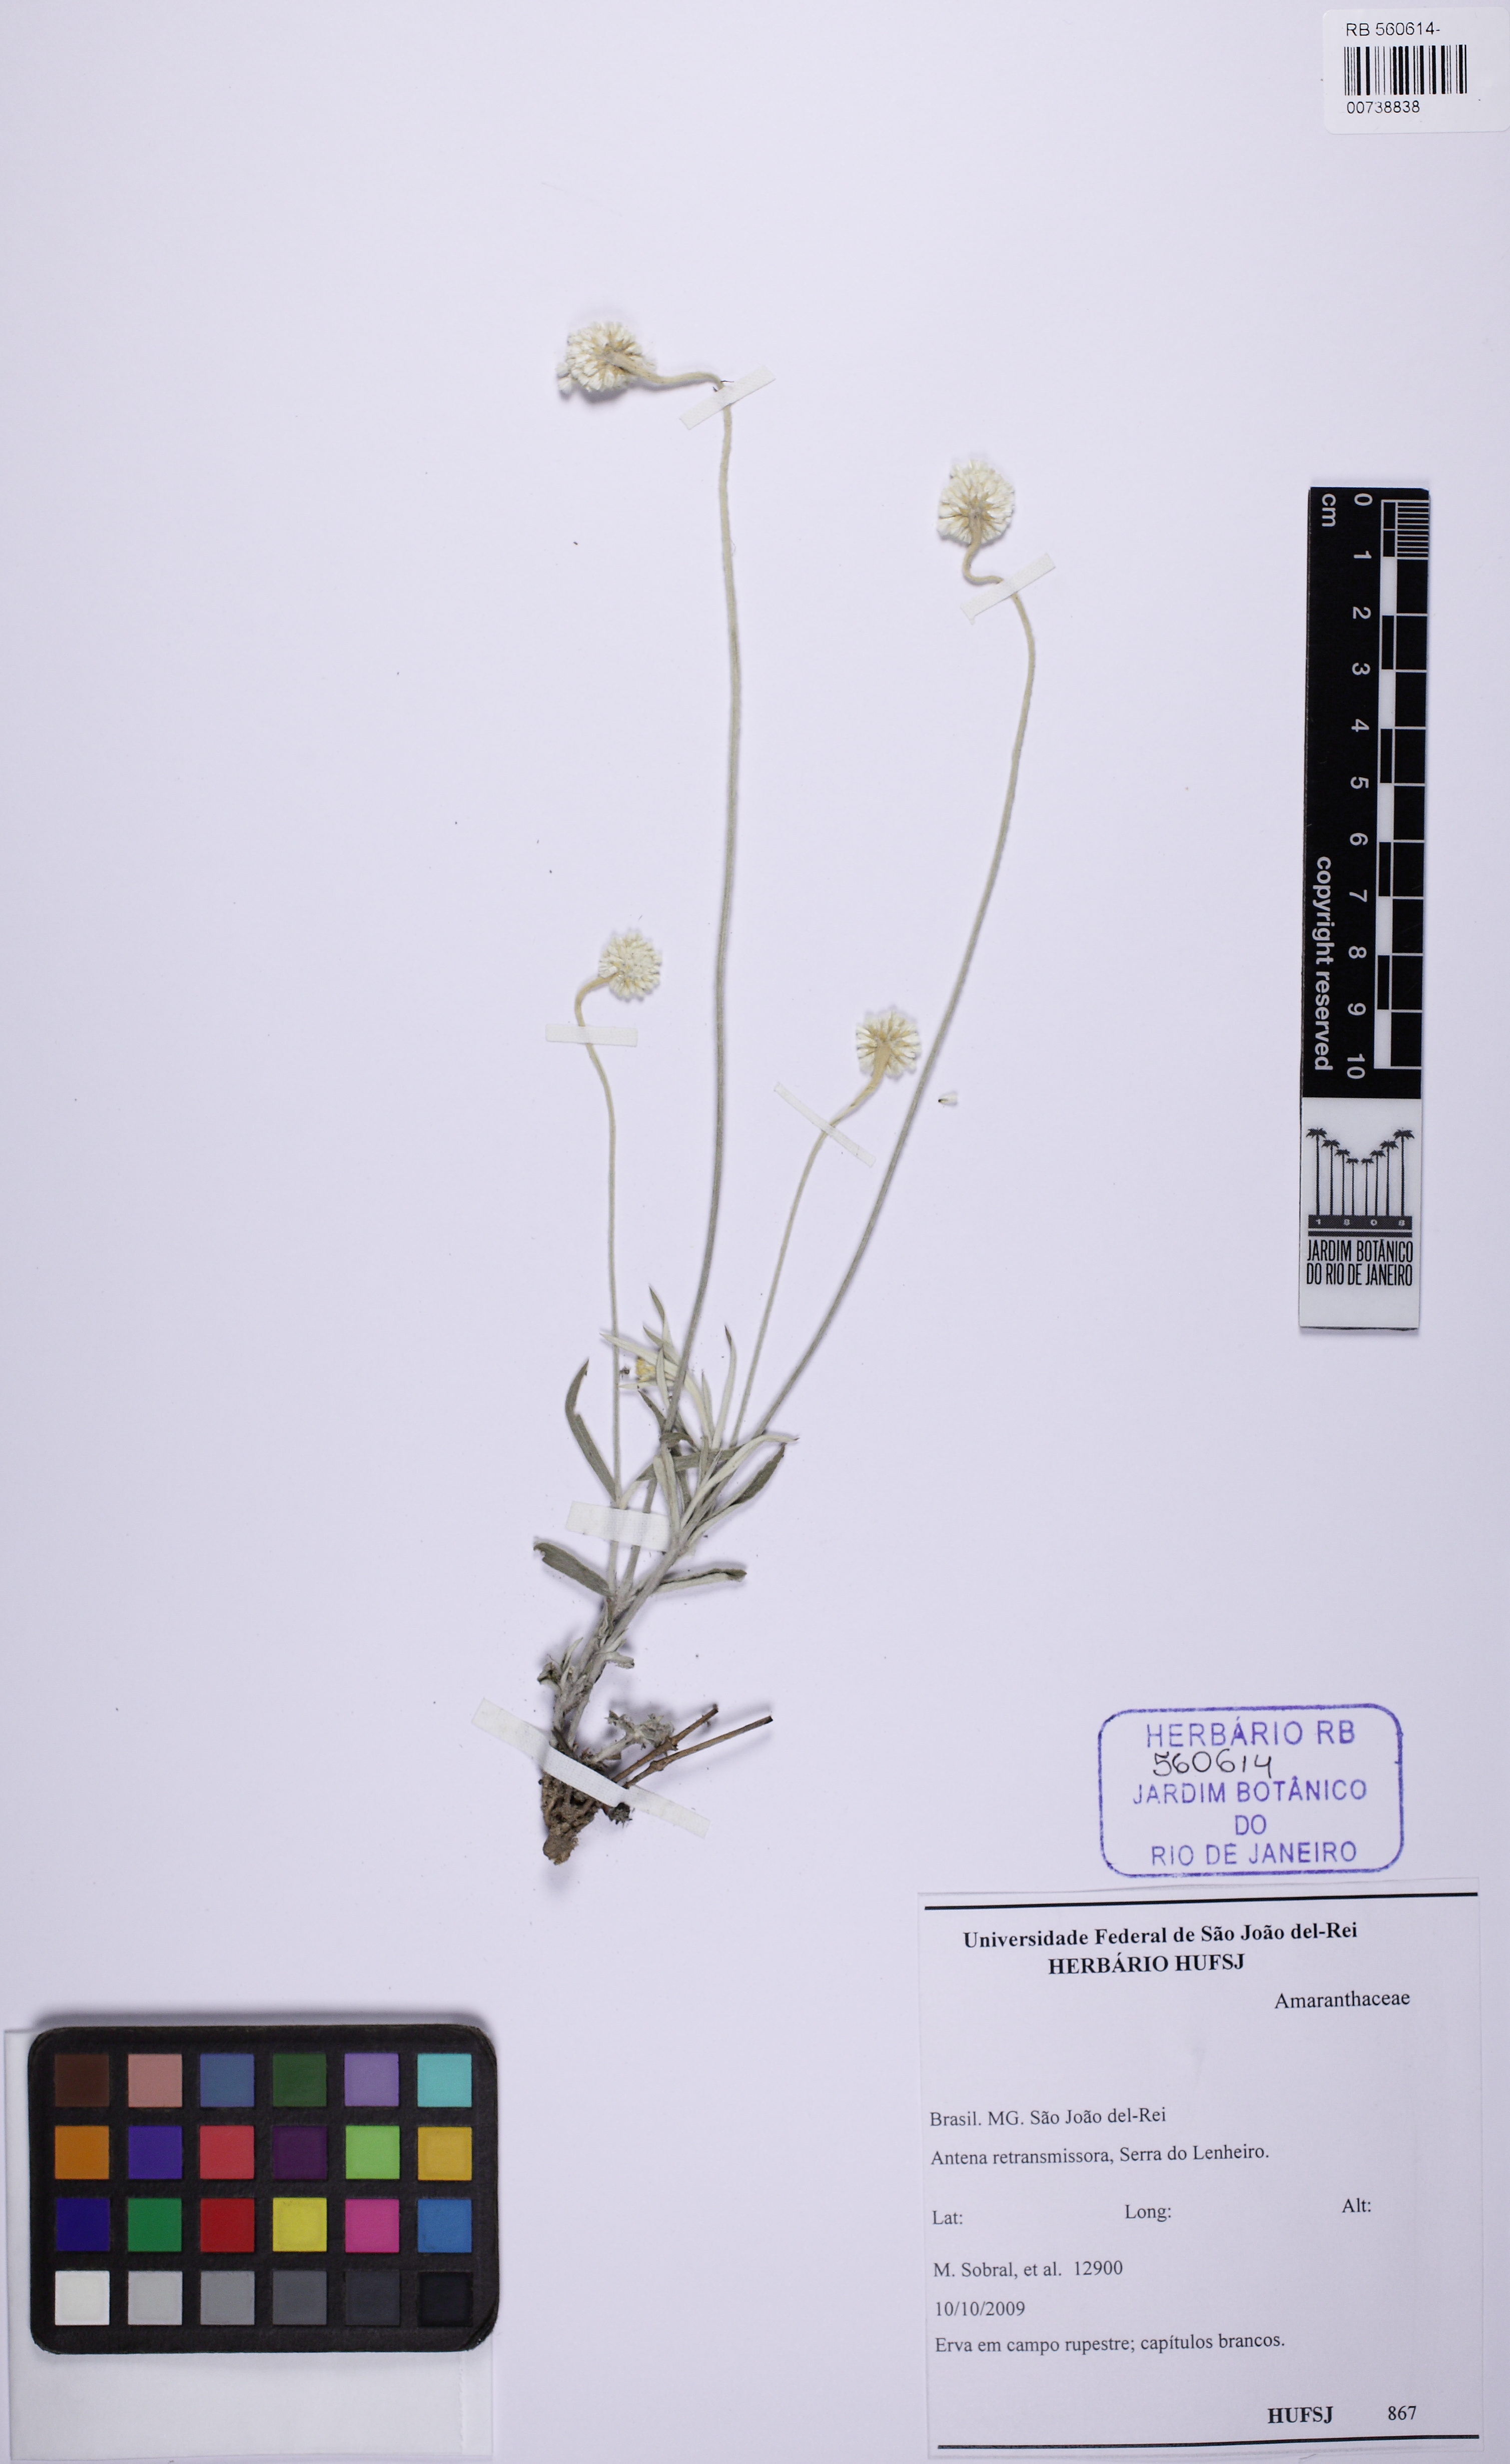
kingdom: Plantae
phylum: Tracheophyta
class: Magnoliopsida
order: Caryophyllales
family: Amaranthaceae
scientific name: Amaranthaceae
